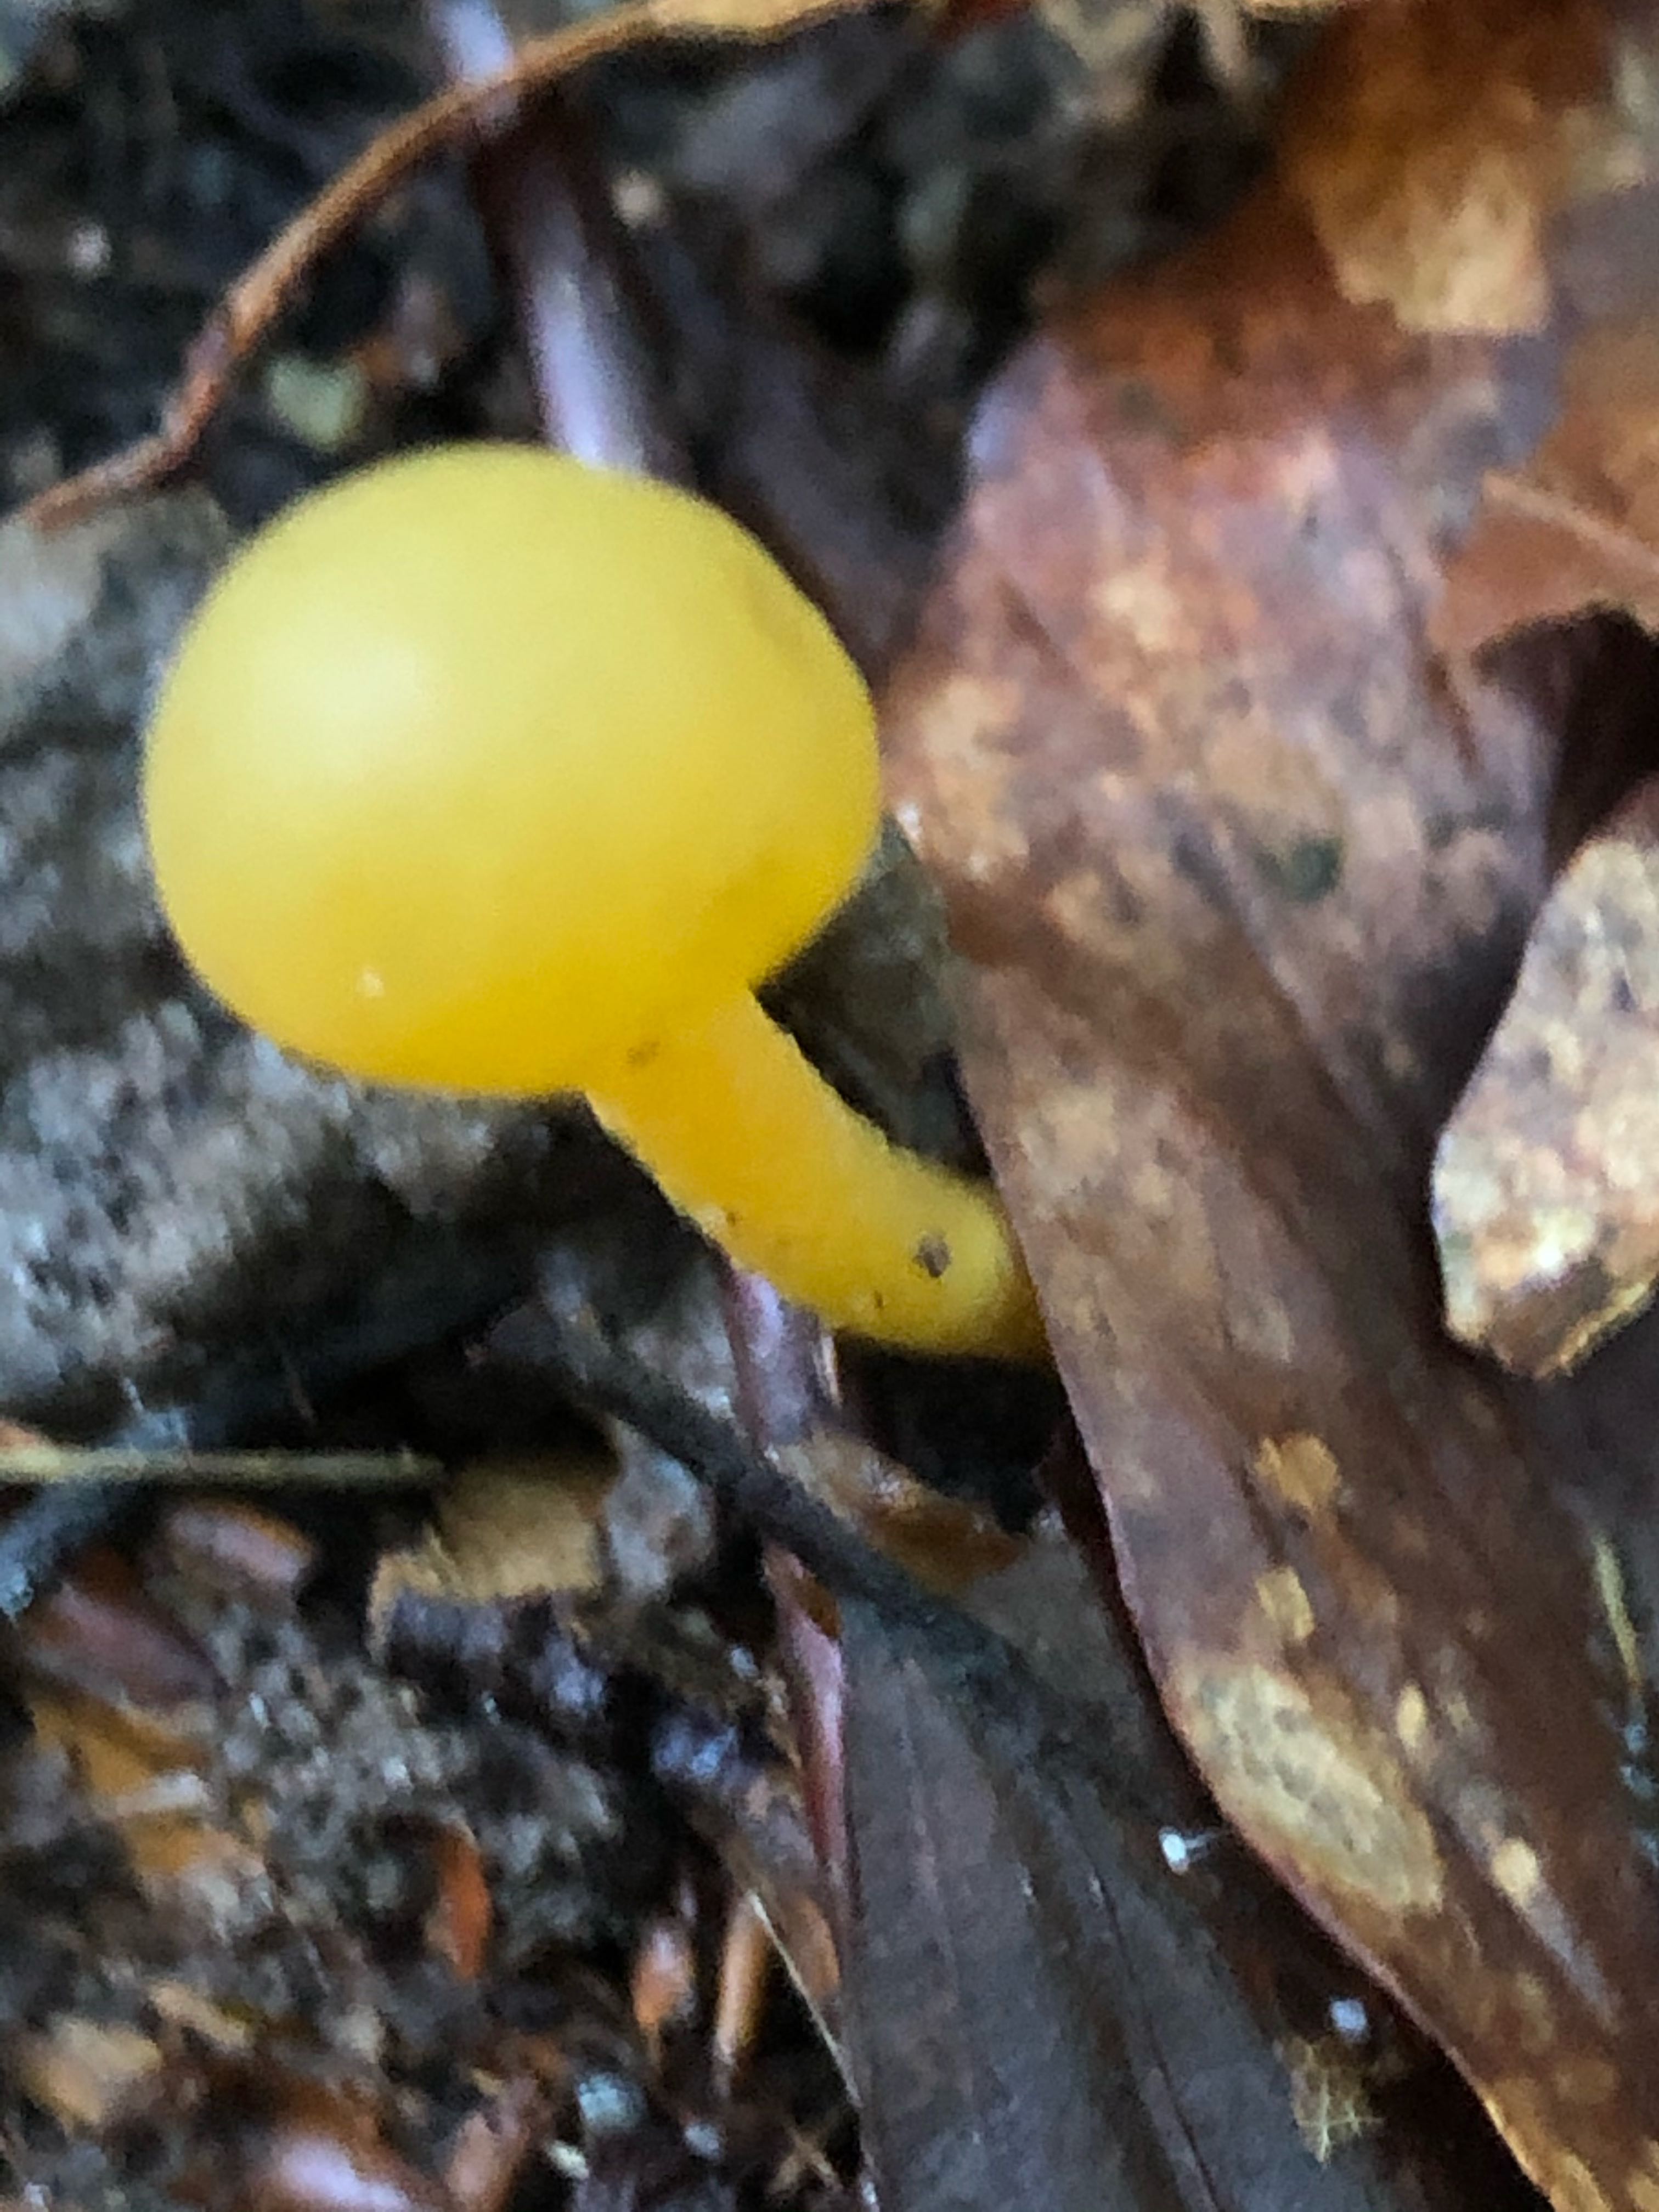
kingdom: Fungi
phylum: Ascomycota
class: Leotiomycetes
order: Leotiales
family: Leotiaceae
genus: Leotia
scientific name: Leotia lubrica
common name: ravsvamp
